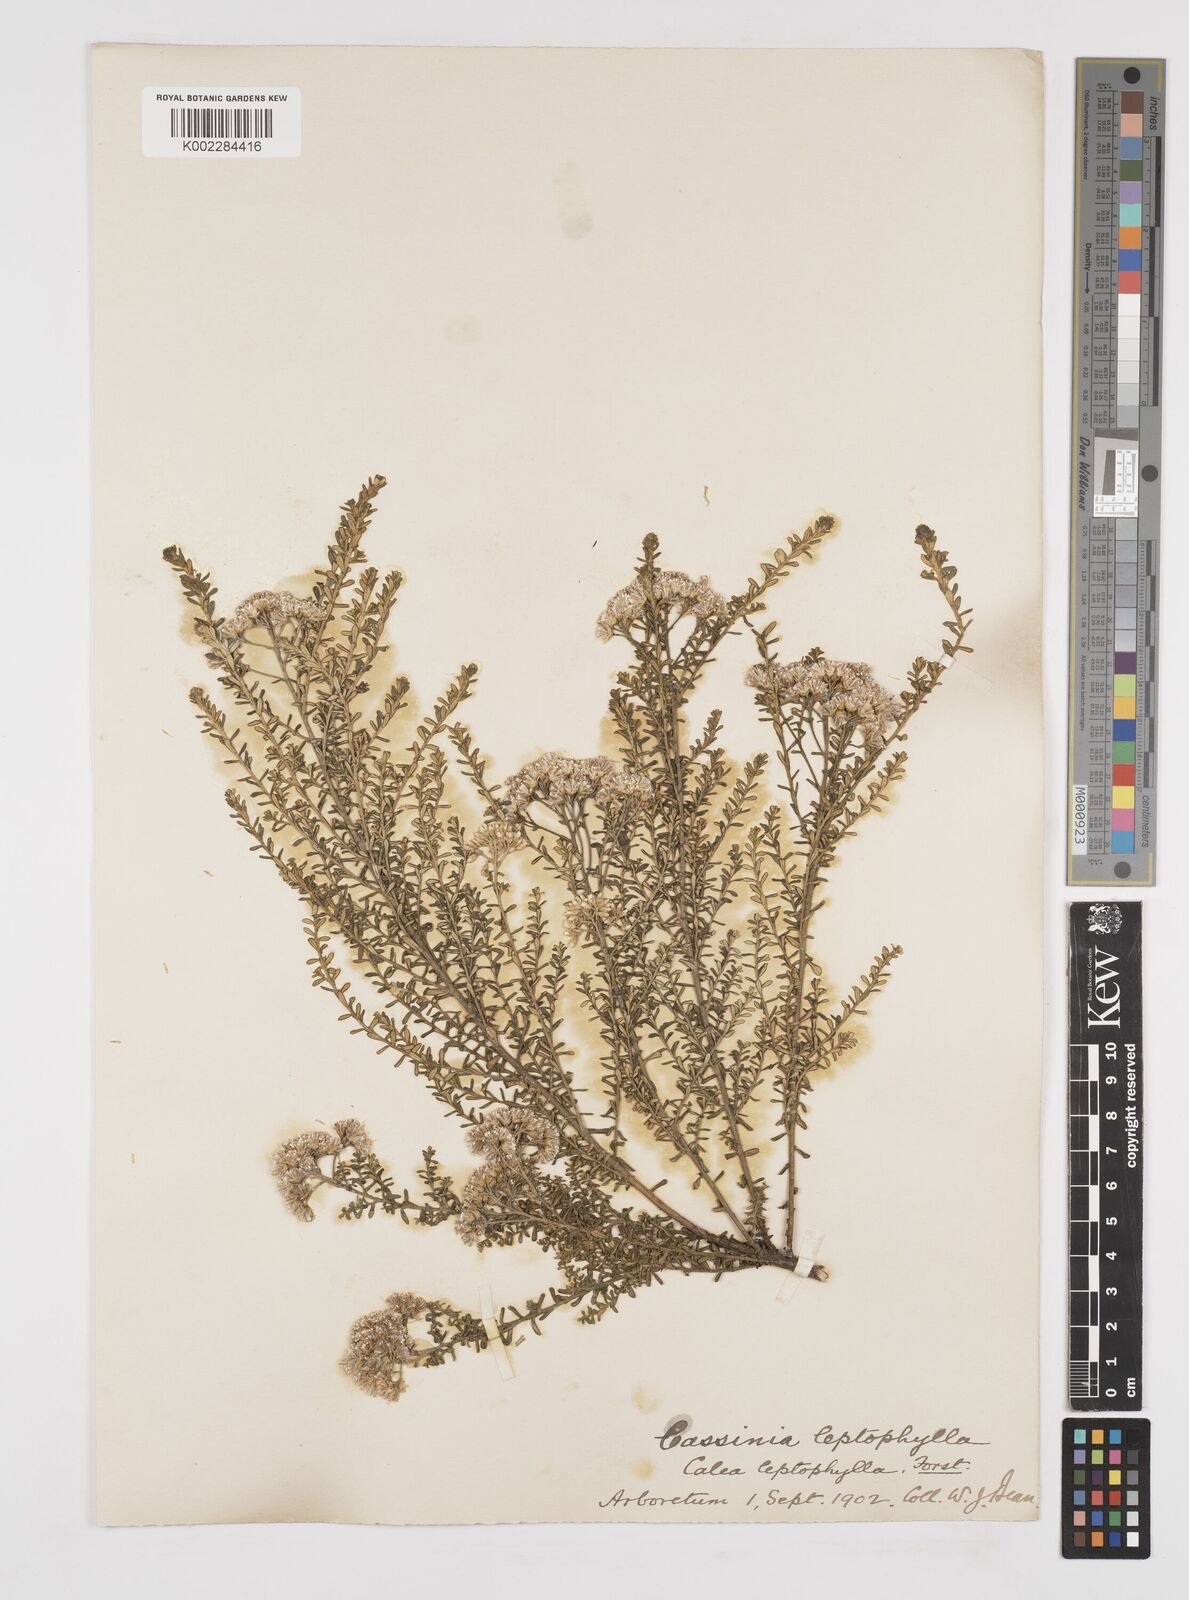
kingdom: Plantae
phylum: Tracheophyta
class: Magnoliopsida
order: Asterales
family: Asteraceae
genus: Ozothamnus
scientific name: Ozothamnus leptophyllus
